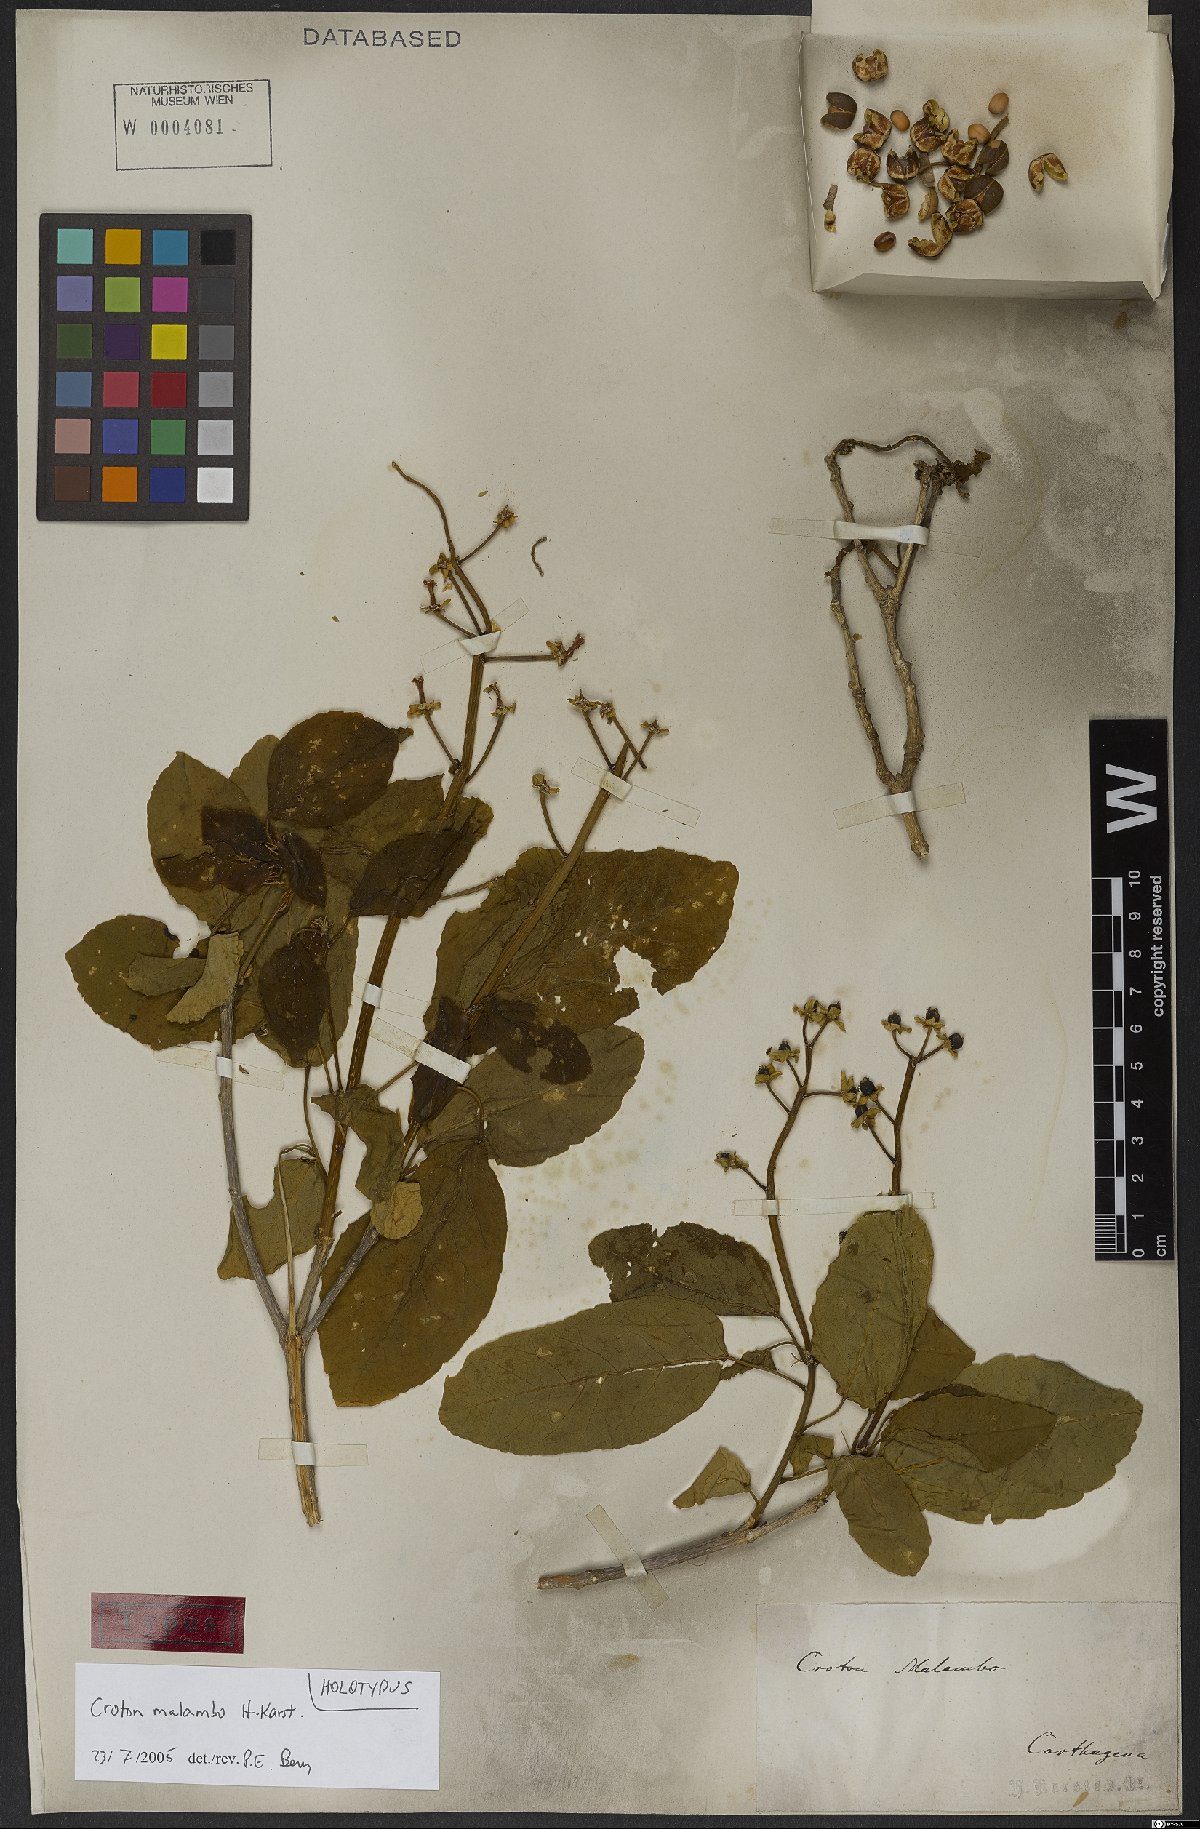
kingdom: Plantae
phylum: Tracheophyta
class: Magnoliopsida
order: Malpighiales
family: Euphorbiaceae
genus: Croton
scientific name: Croton malambo
